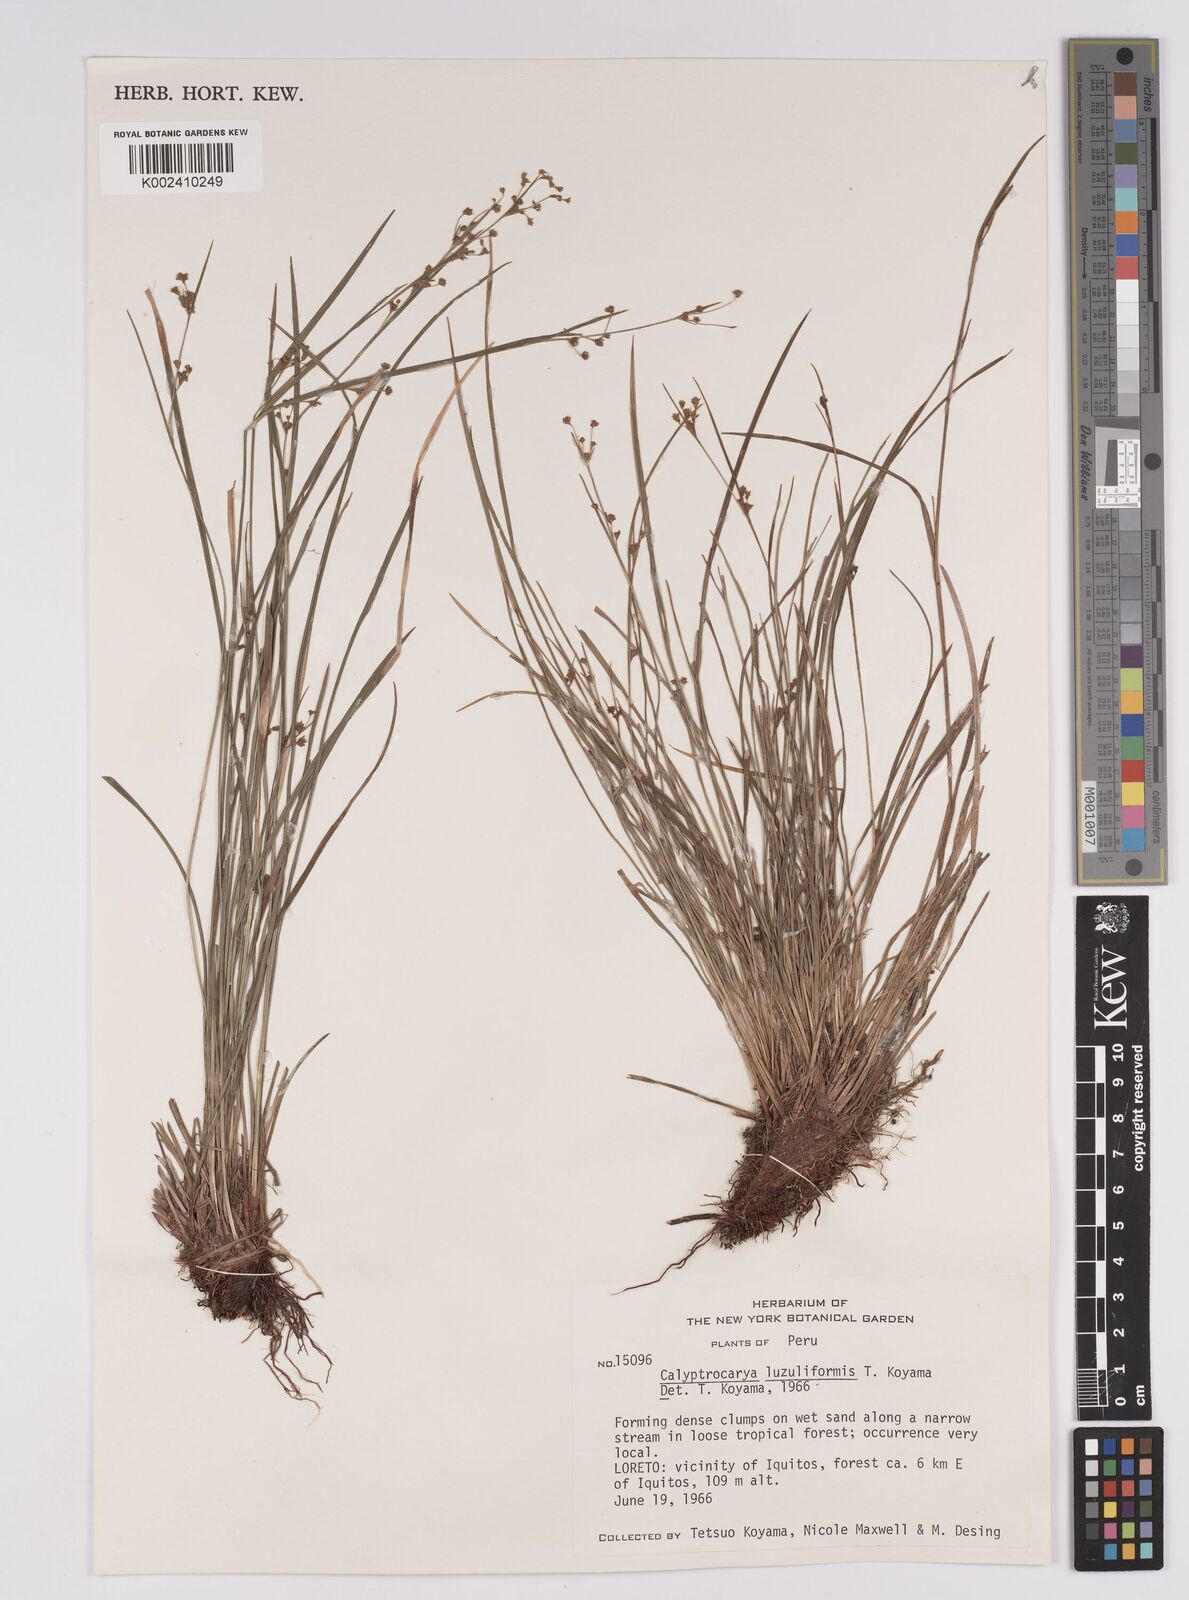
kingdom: Plantae
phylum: Tracheophyta
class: Liliopsida
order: Poales
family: Cyperaceae
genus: Calyptrocarya
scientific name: Calyptrocarya luzuliformis
